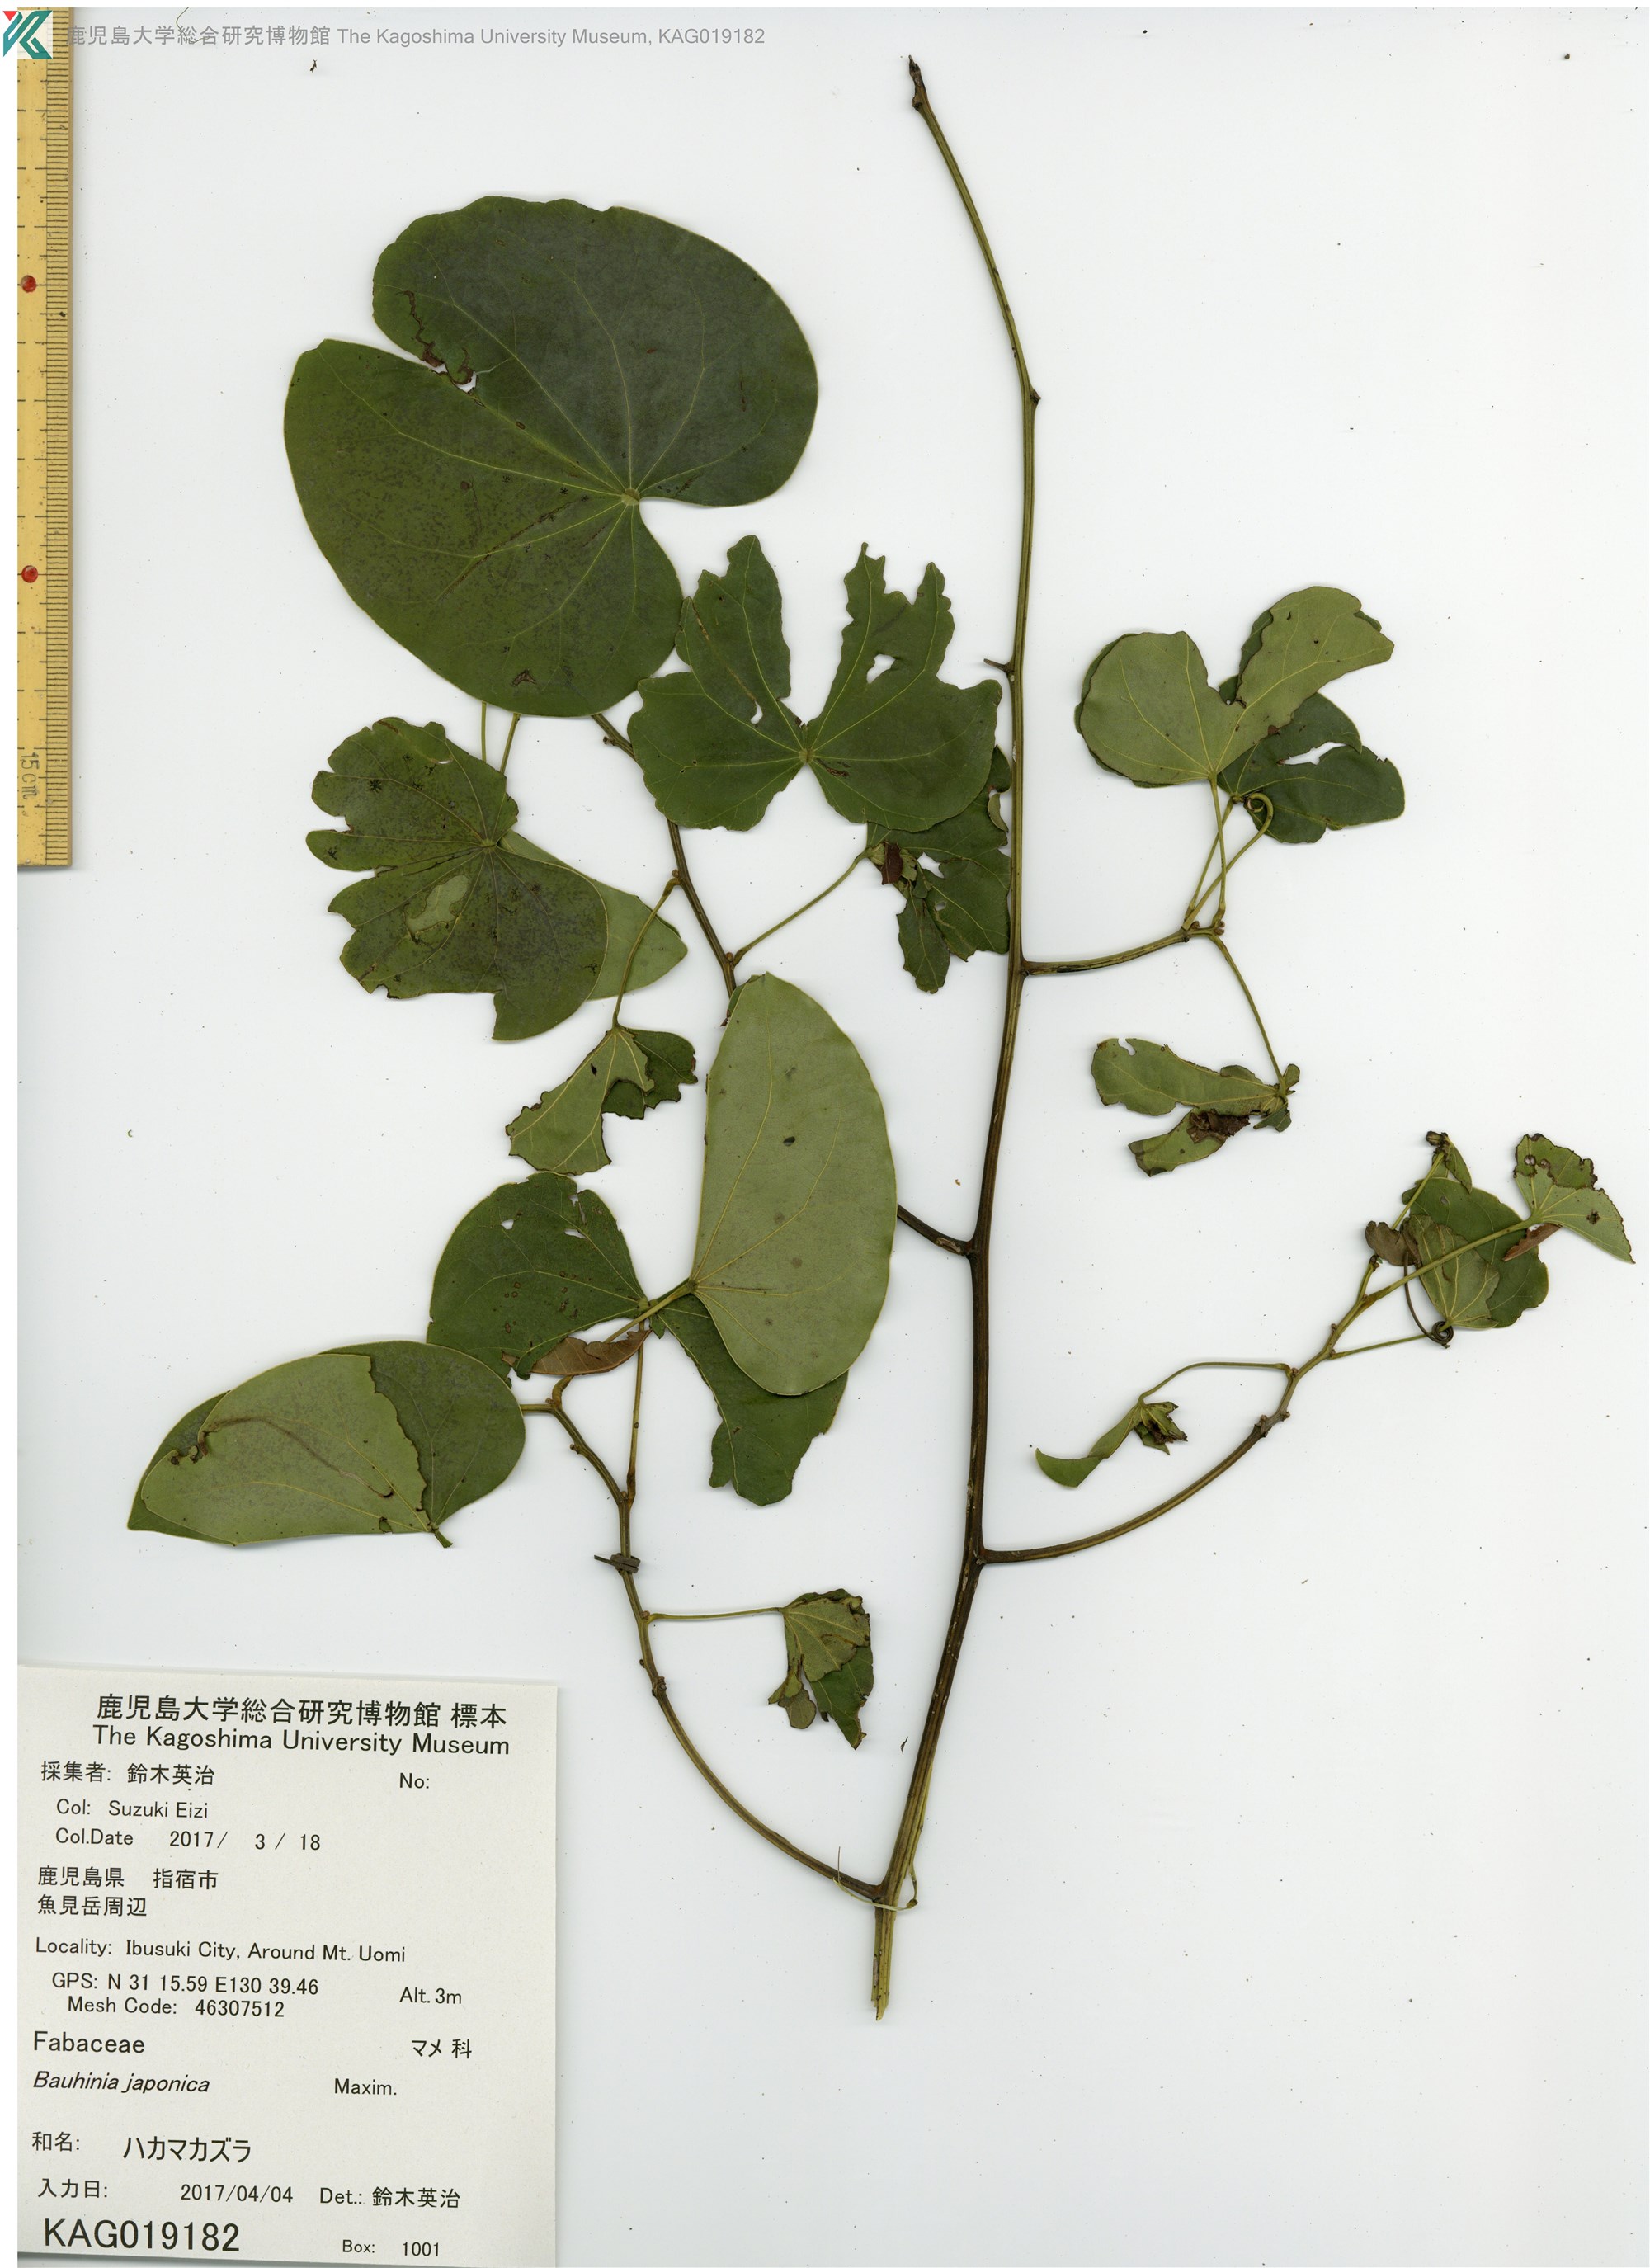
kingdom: Plantae
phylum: Tracheophyta
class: Magnoliopsida
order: Fabales
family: Fabaceae
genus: Phanera
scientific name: Phanera japonica
